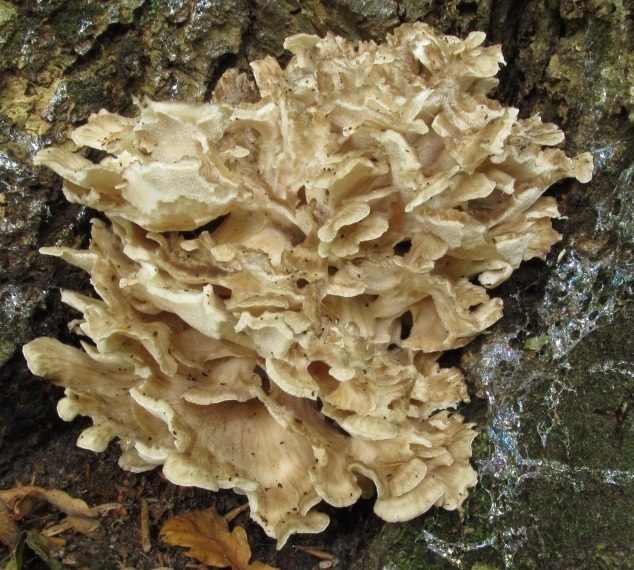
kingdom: Fungi
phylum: Basidiomycota
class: Agaricomycetes
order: Polyporales
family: Grifolaceae
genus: Grifola
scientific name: Grifola frondosa
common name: tueporesvamp
